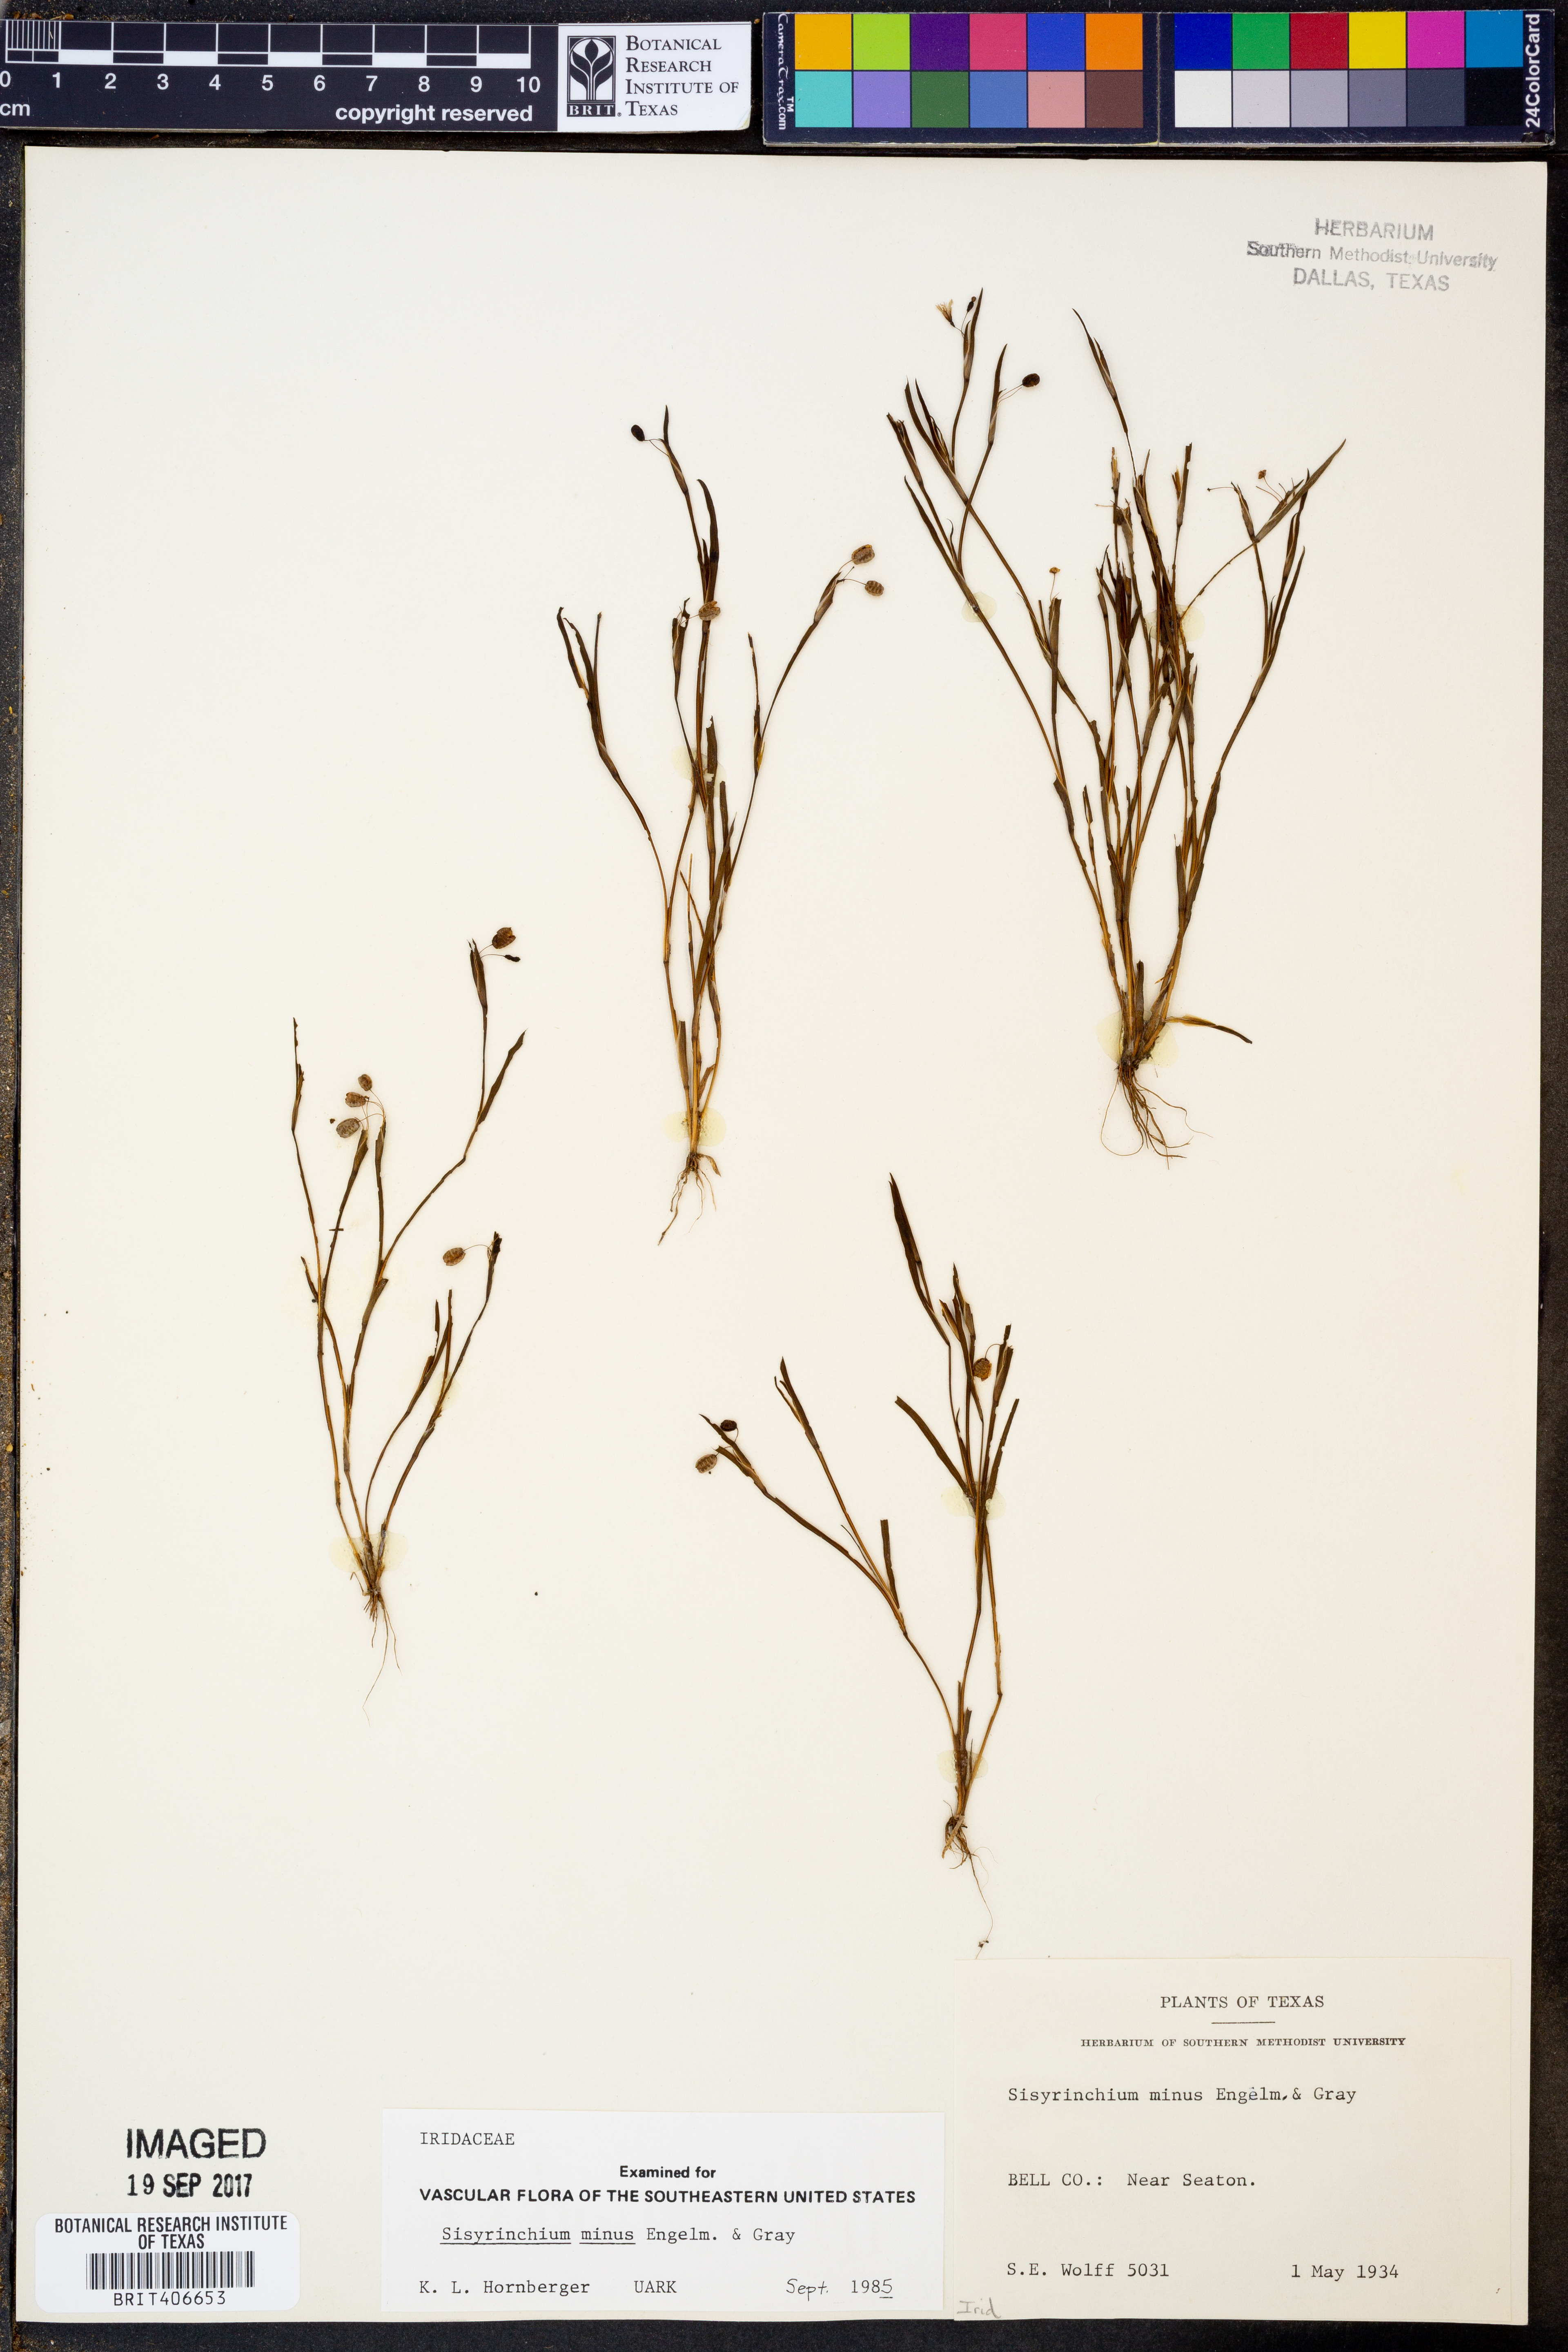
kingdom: Plantae
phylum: Tracheophyta
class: Liliopsida
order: Asparagales
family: Iridaceae
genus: Sisyrinchium
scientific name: Sisyrinchium minus
